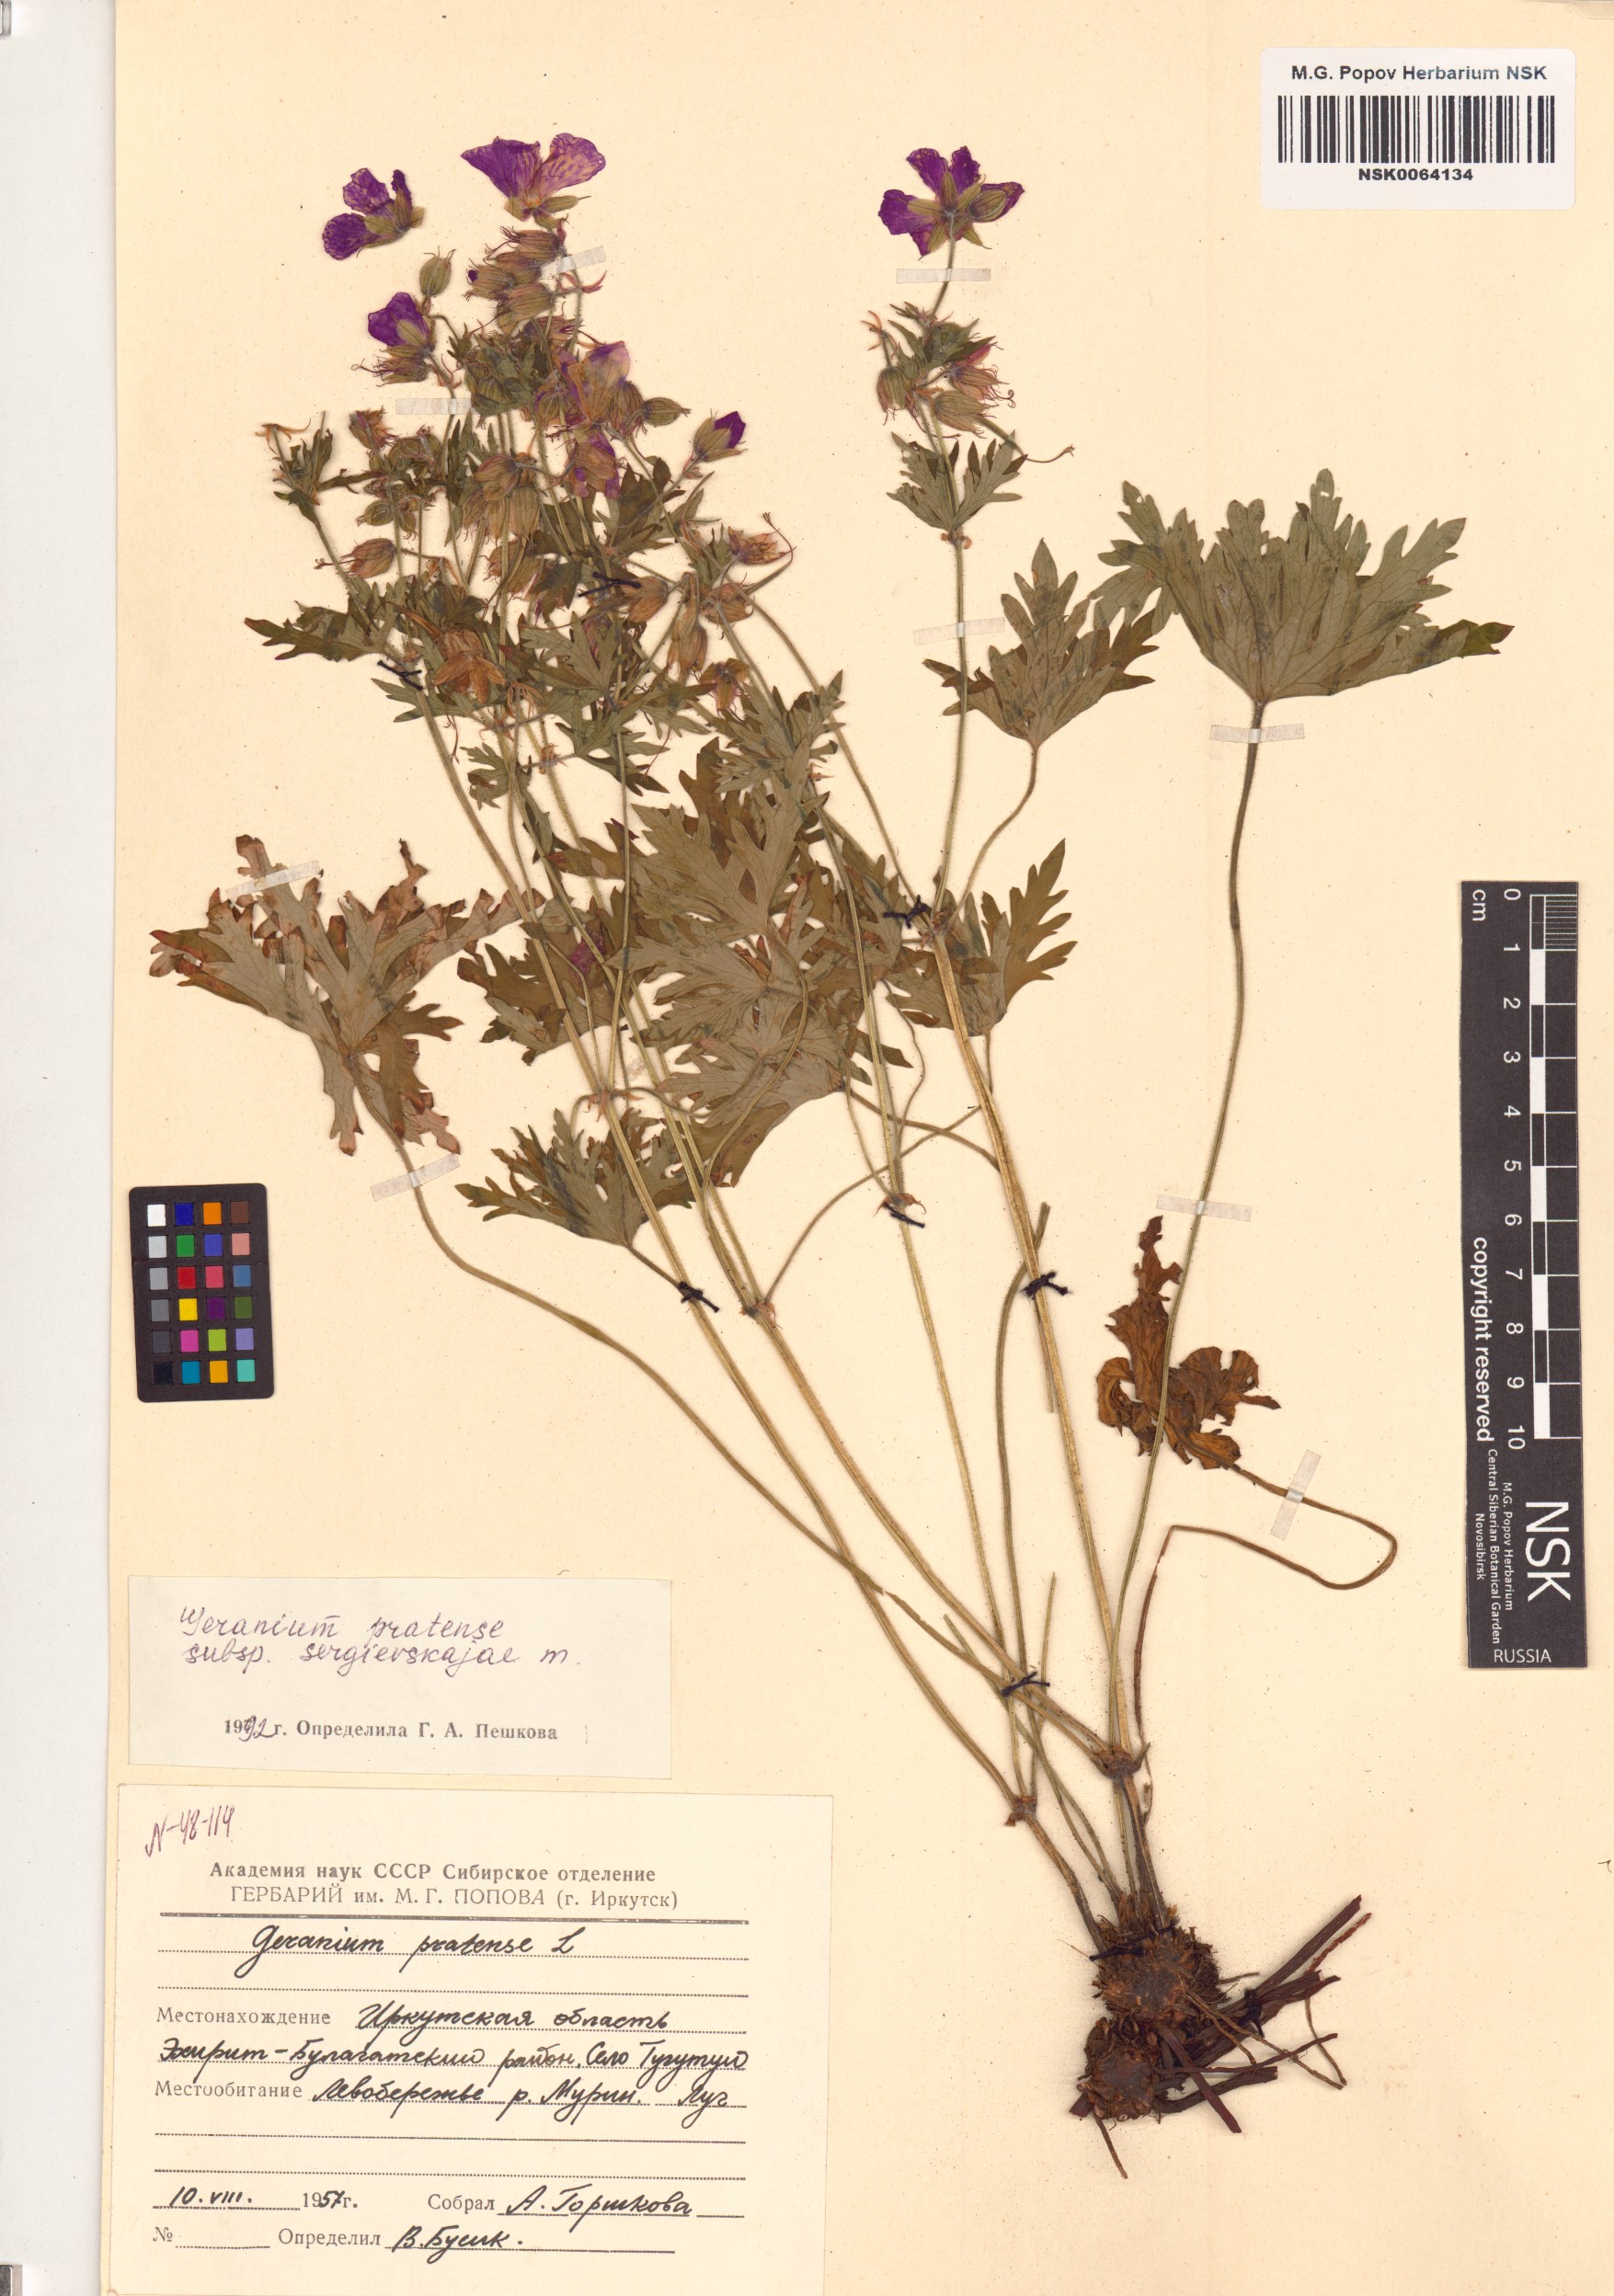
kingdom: Plantae
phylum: Tracheophyta
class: Magnoliopsida
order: Geraniales
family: Geraniaceae
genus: Geranium
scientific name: Geranium pratense
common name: Meadow crane's-bill
